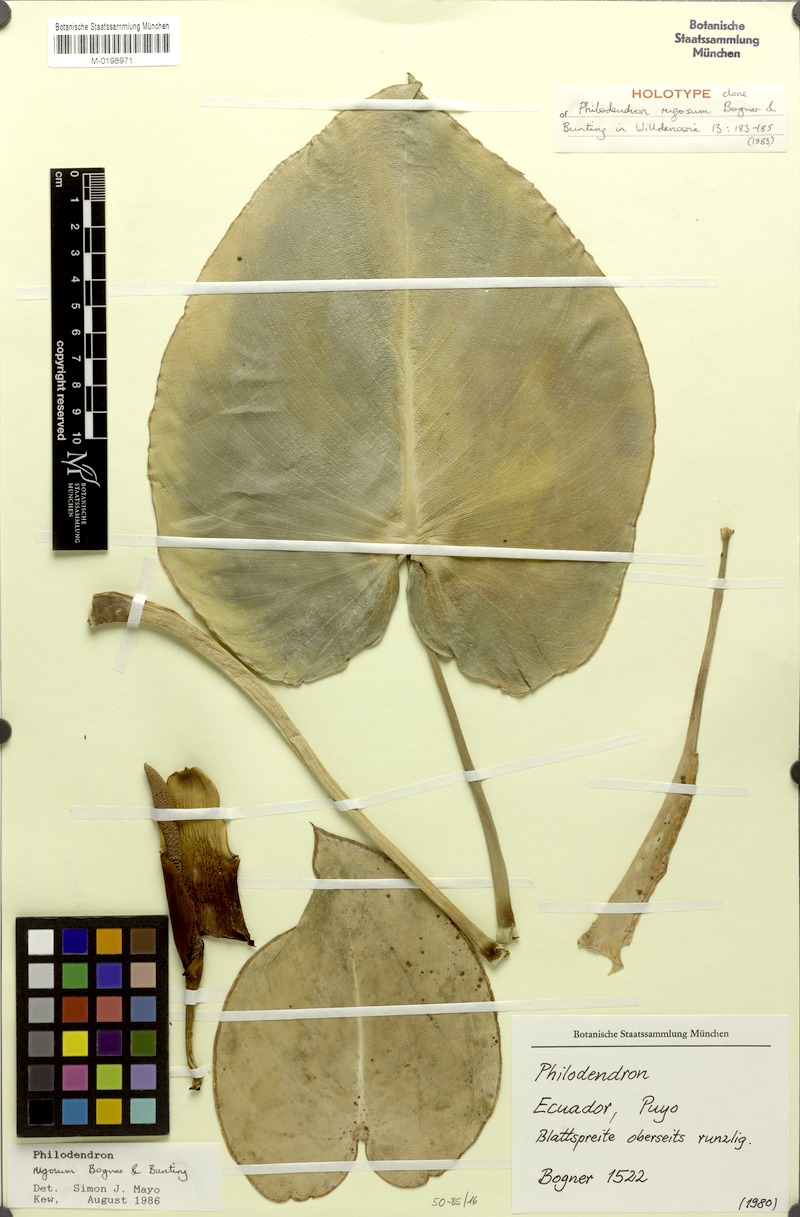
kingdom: Plantae
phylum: Tracheophyta
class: Liliopsida
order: Alismatales
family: Araceae
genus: Philodendron
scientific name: Philodendron rugosum
